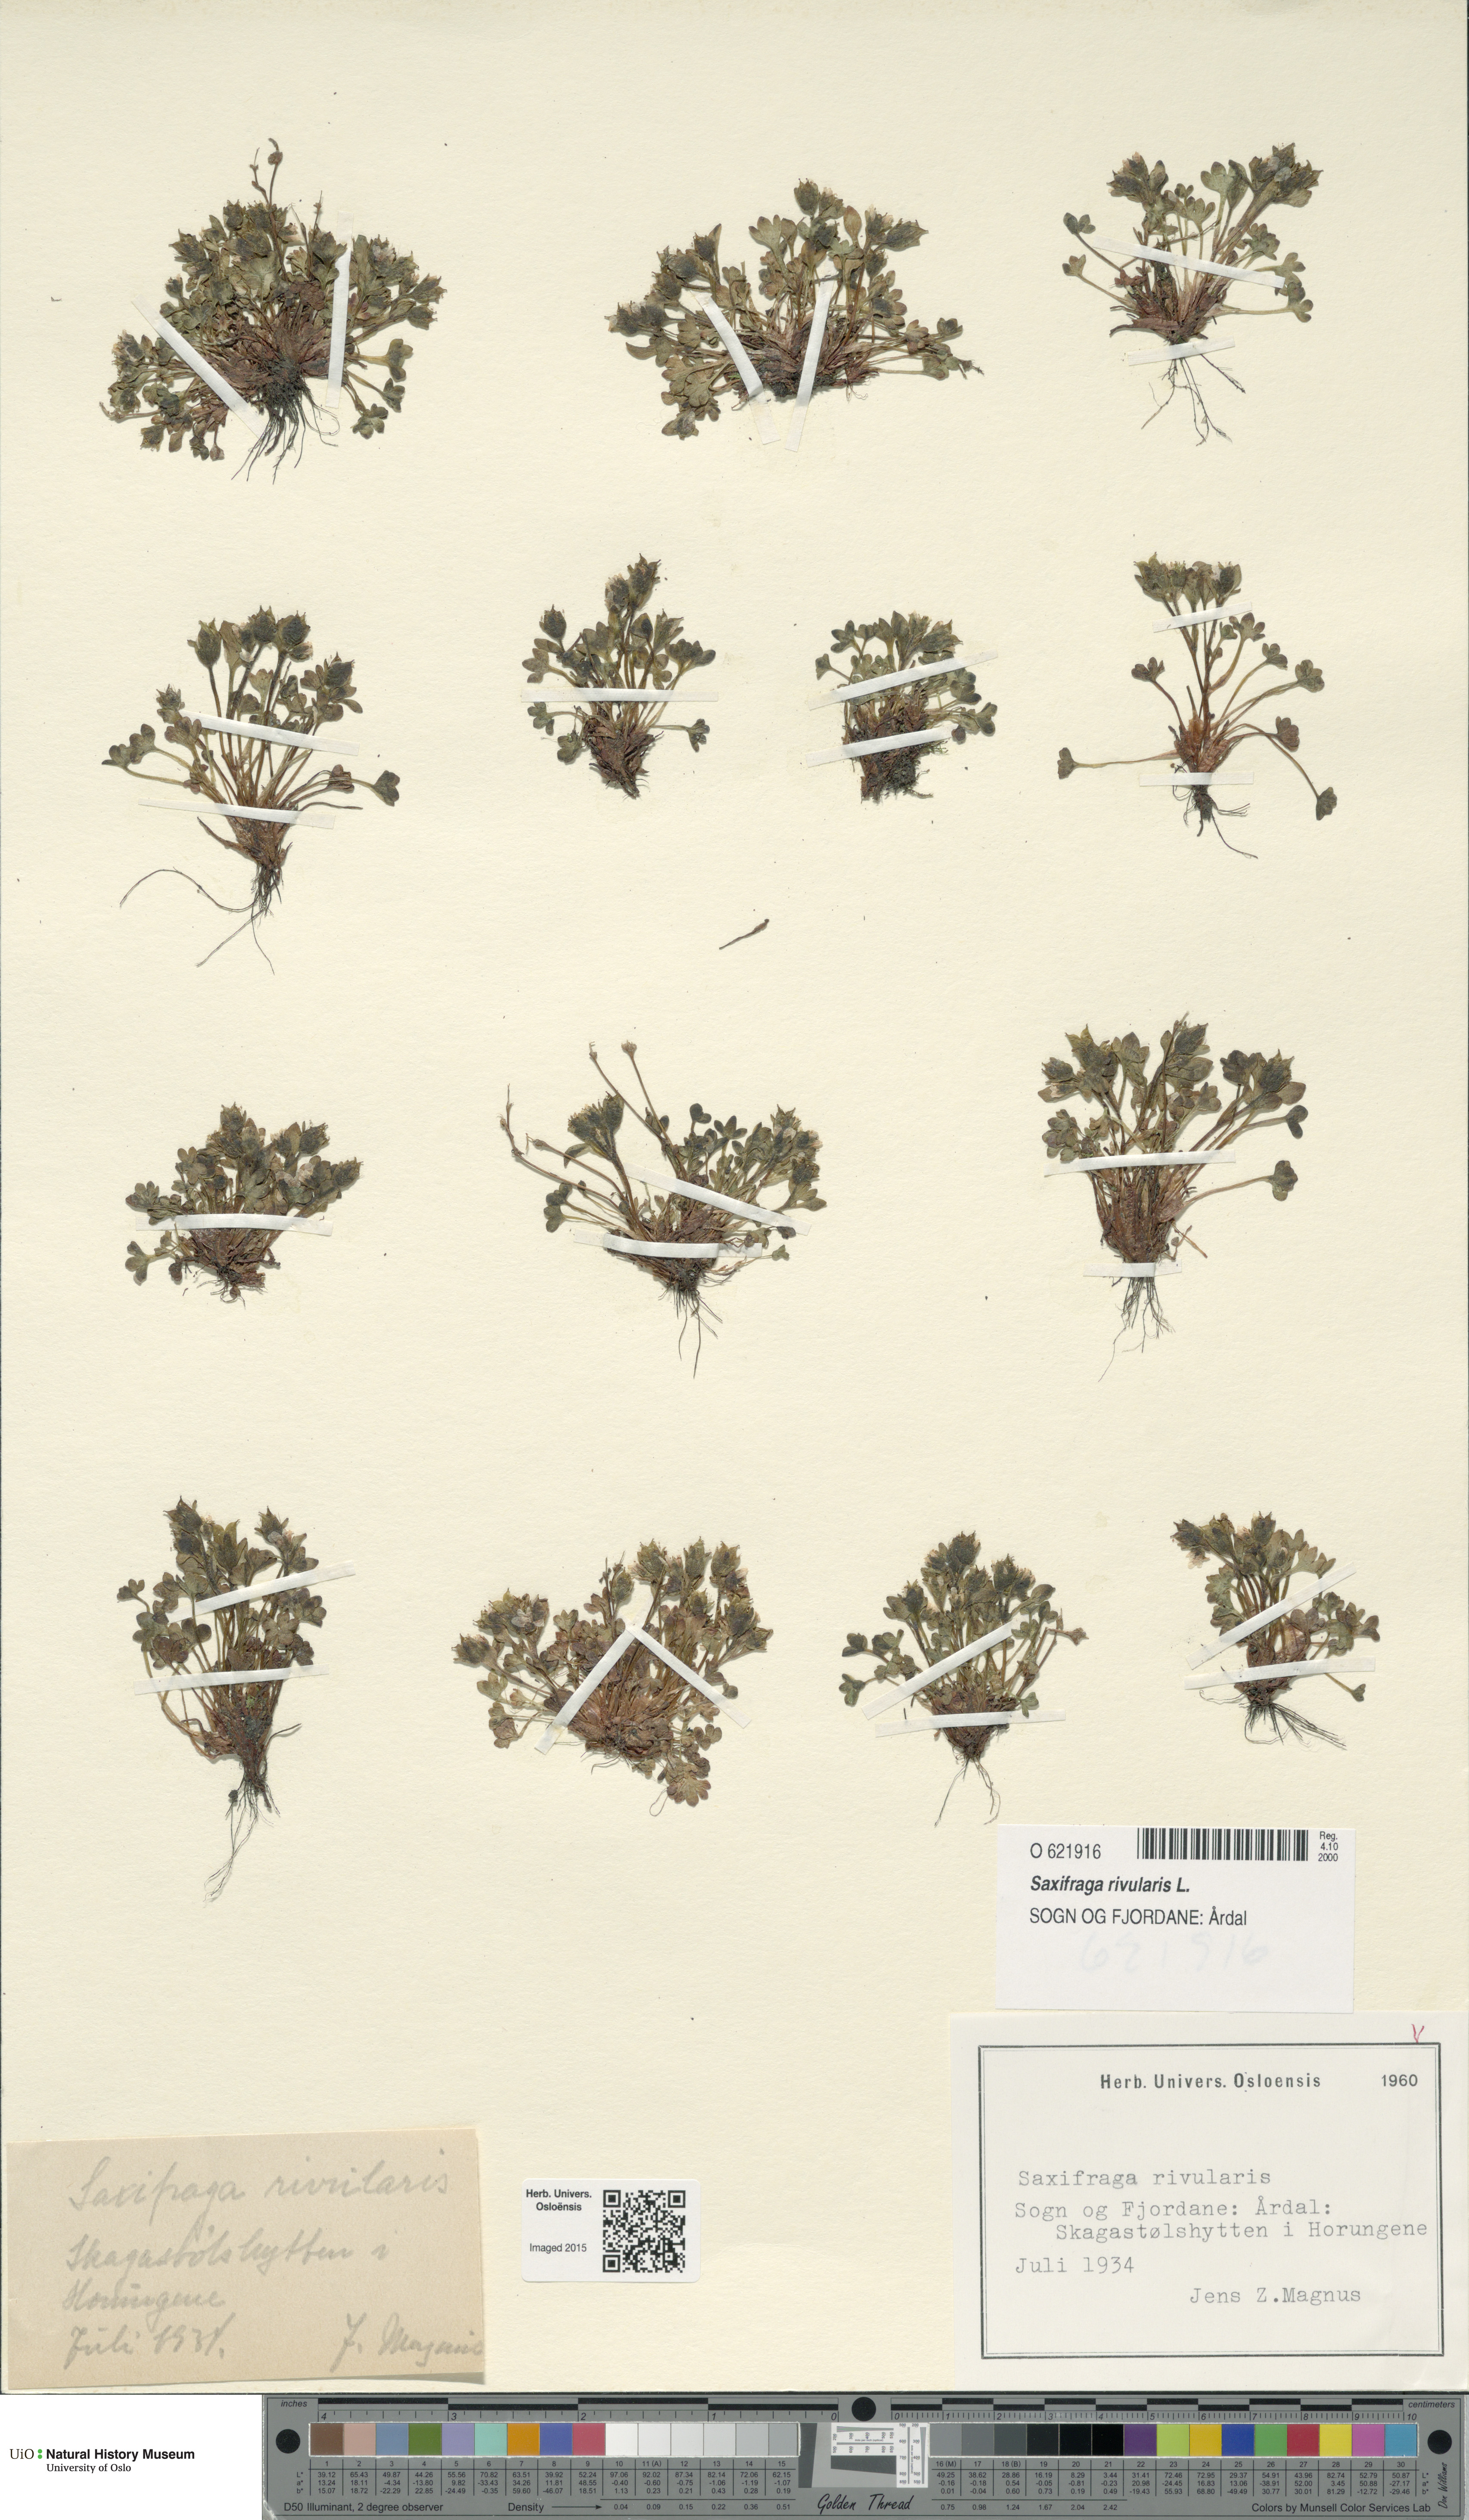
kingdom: Plantae
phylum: Tracheophyta
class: Magnoliopsida
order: Saxifragales
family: Saxifragaceae
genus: Saxifraga
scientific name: Saxifraga rivularis
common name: Highland saxifrage
